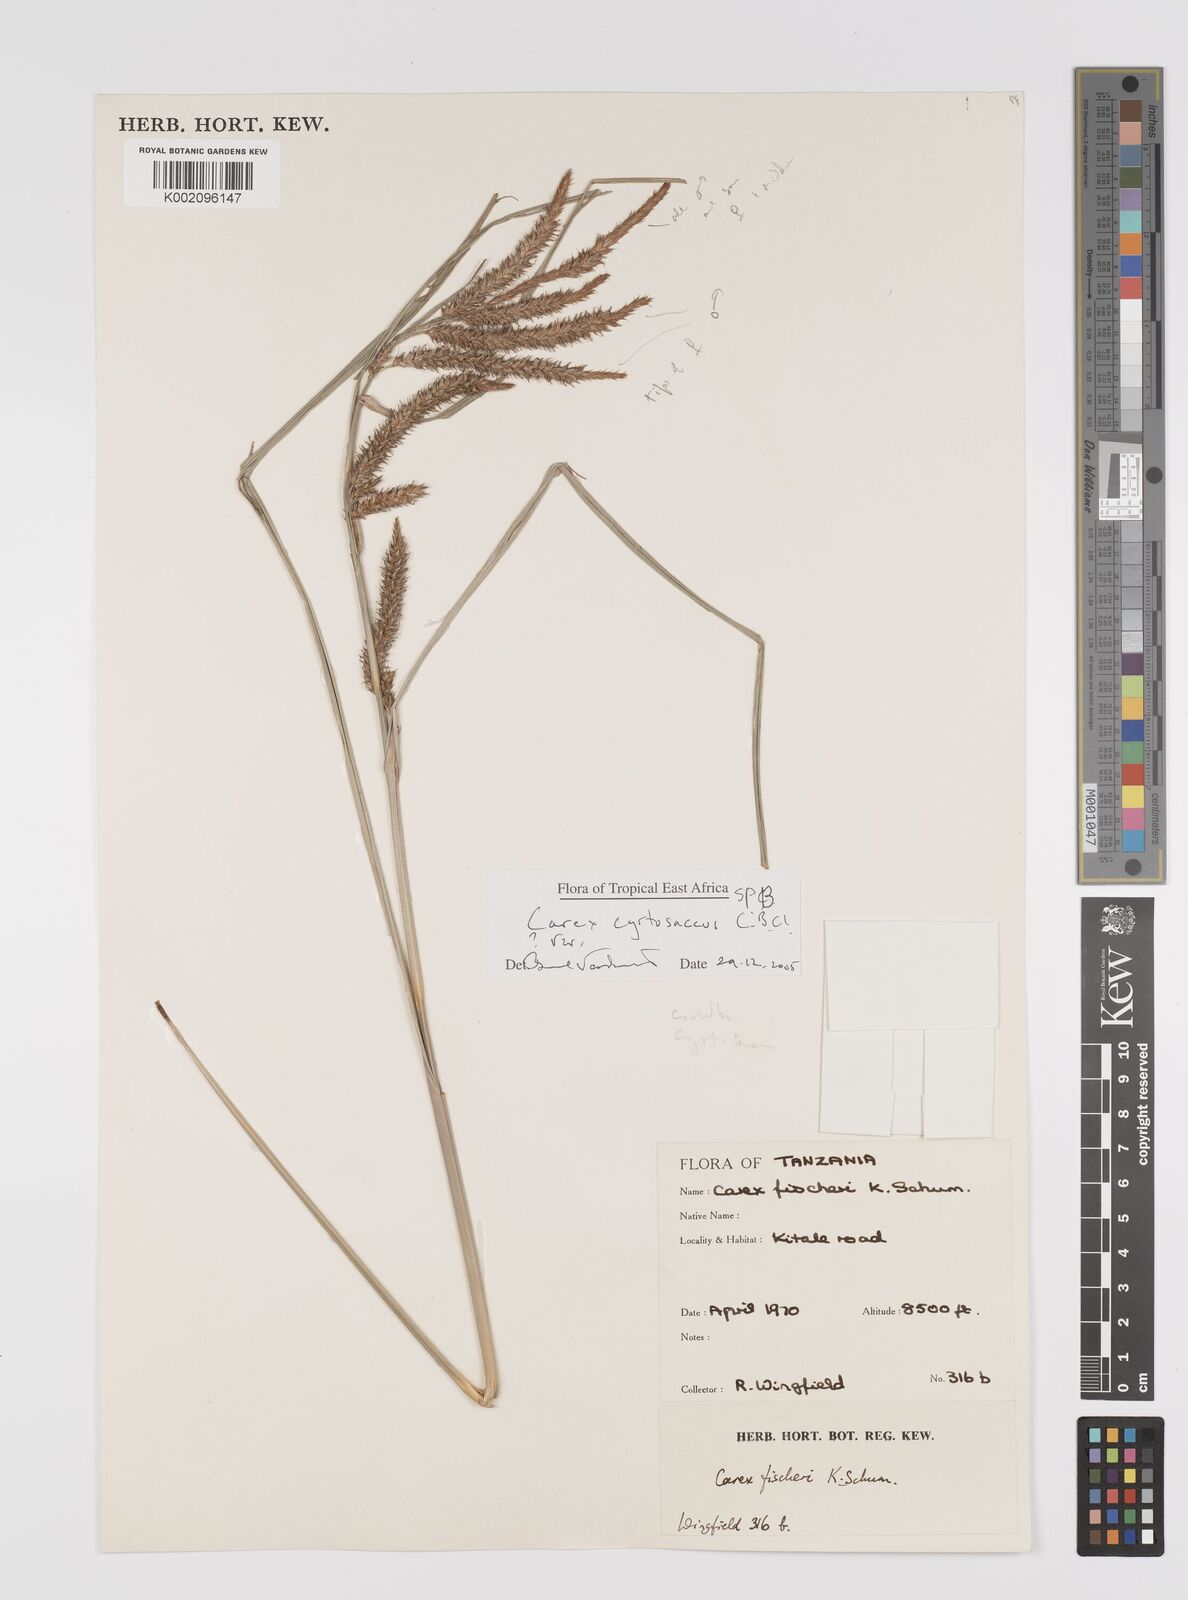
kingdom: Plantae
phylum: Tracheophyta
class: Liliopsida
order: Poales
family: Cyperaceae
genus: Carex
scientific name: Carex
